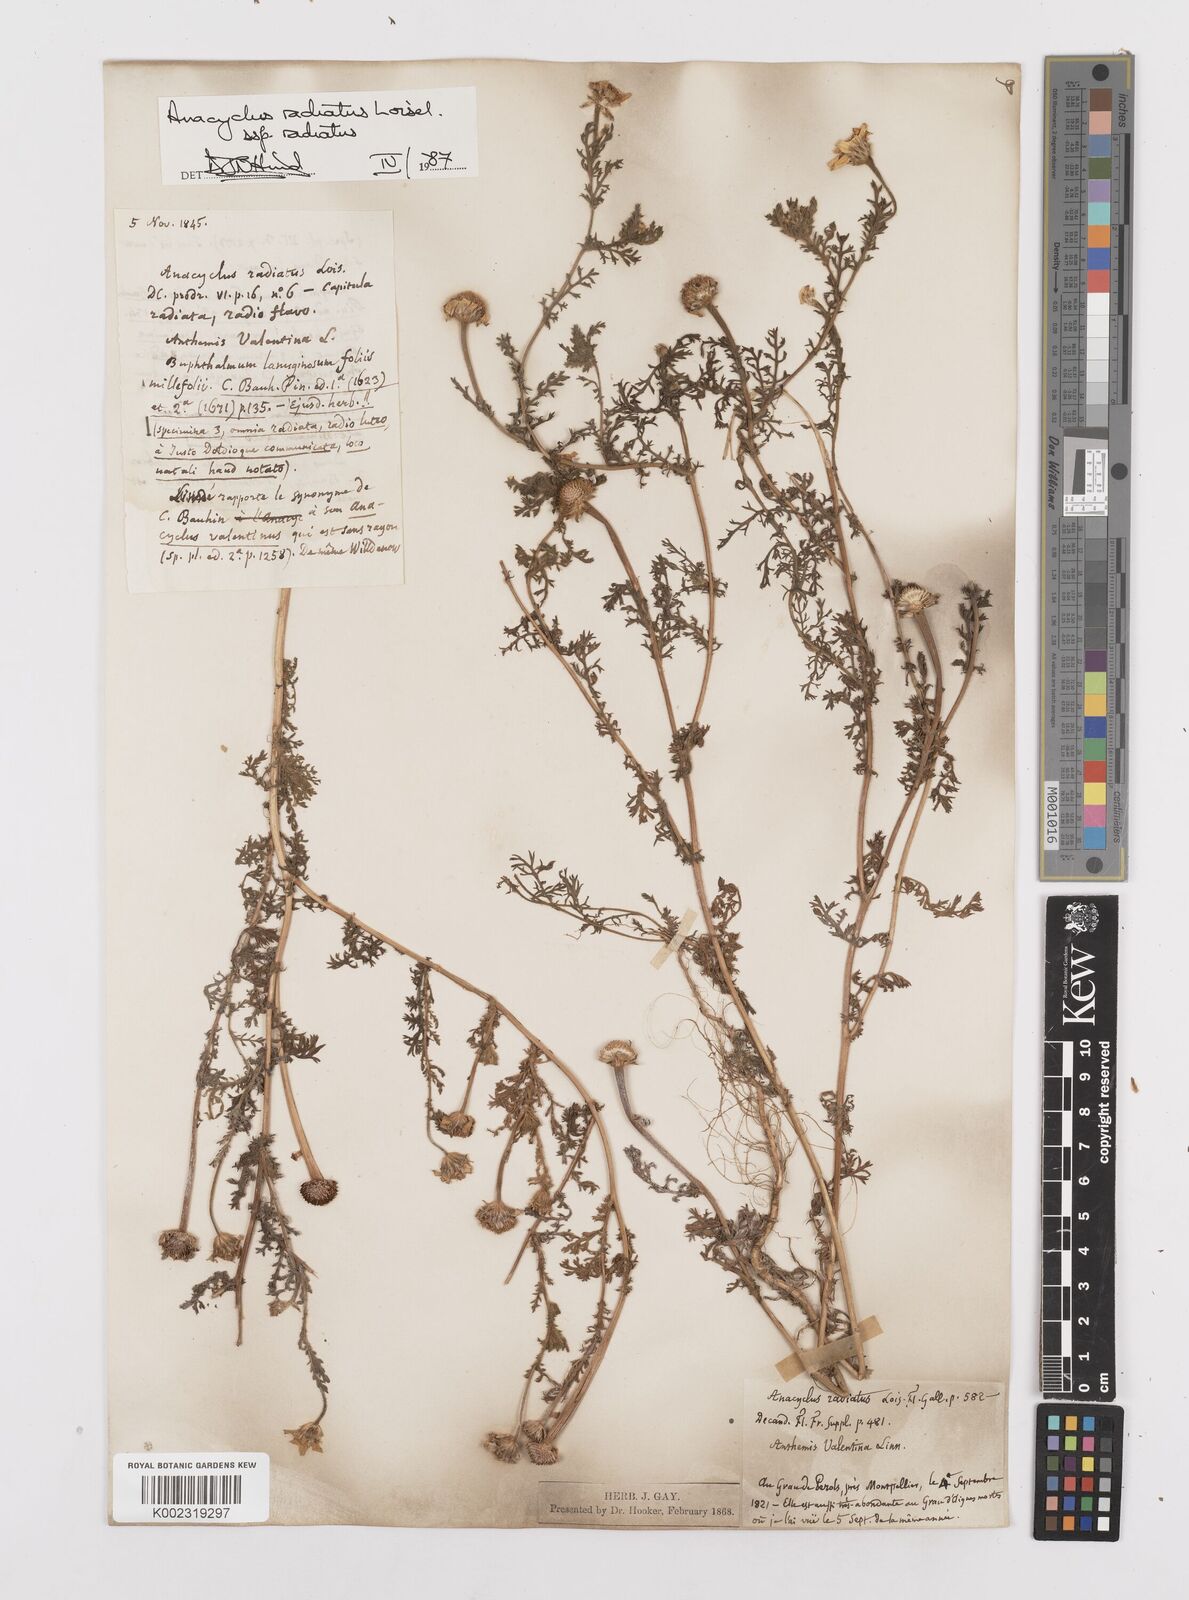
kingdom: Plantae
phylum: Tracheophyta
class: Magnoliopsida
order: Asterales
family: Asteraceae
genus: Anacyclus
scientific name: Anacyclus radiatus
